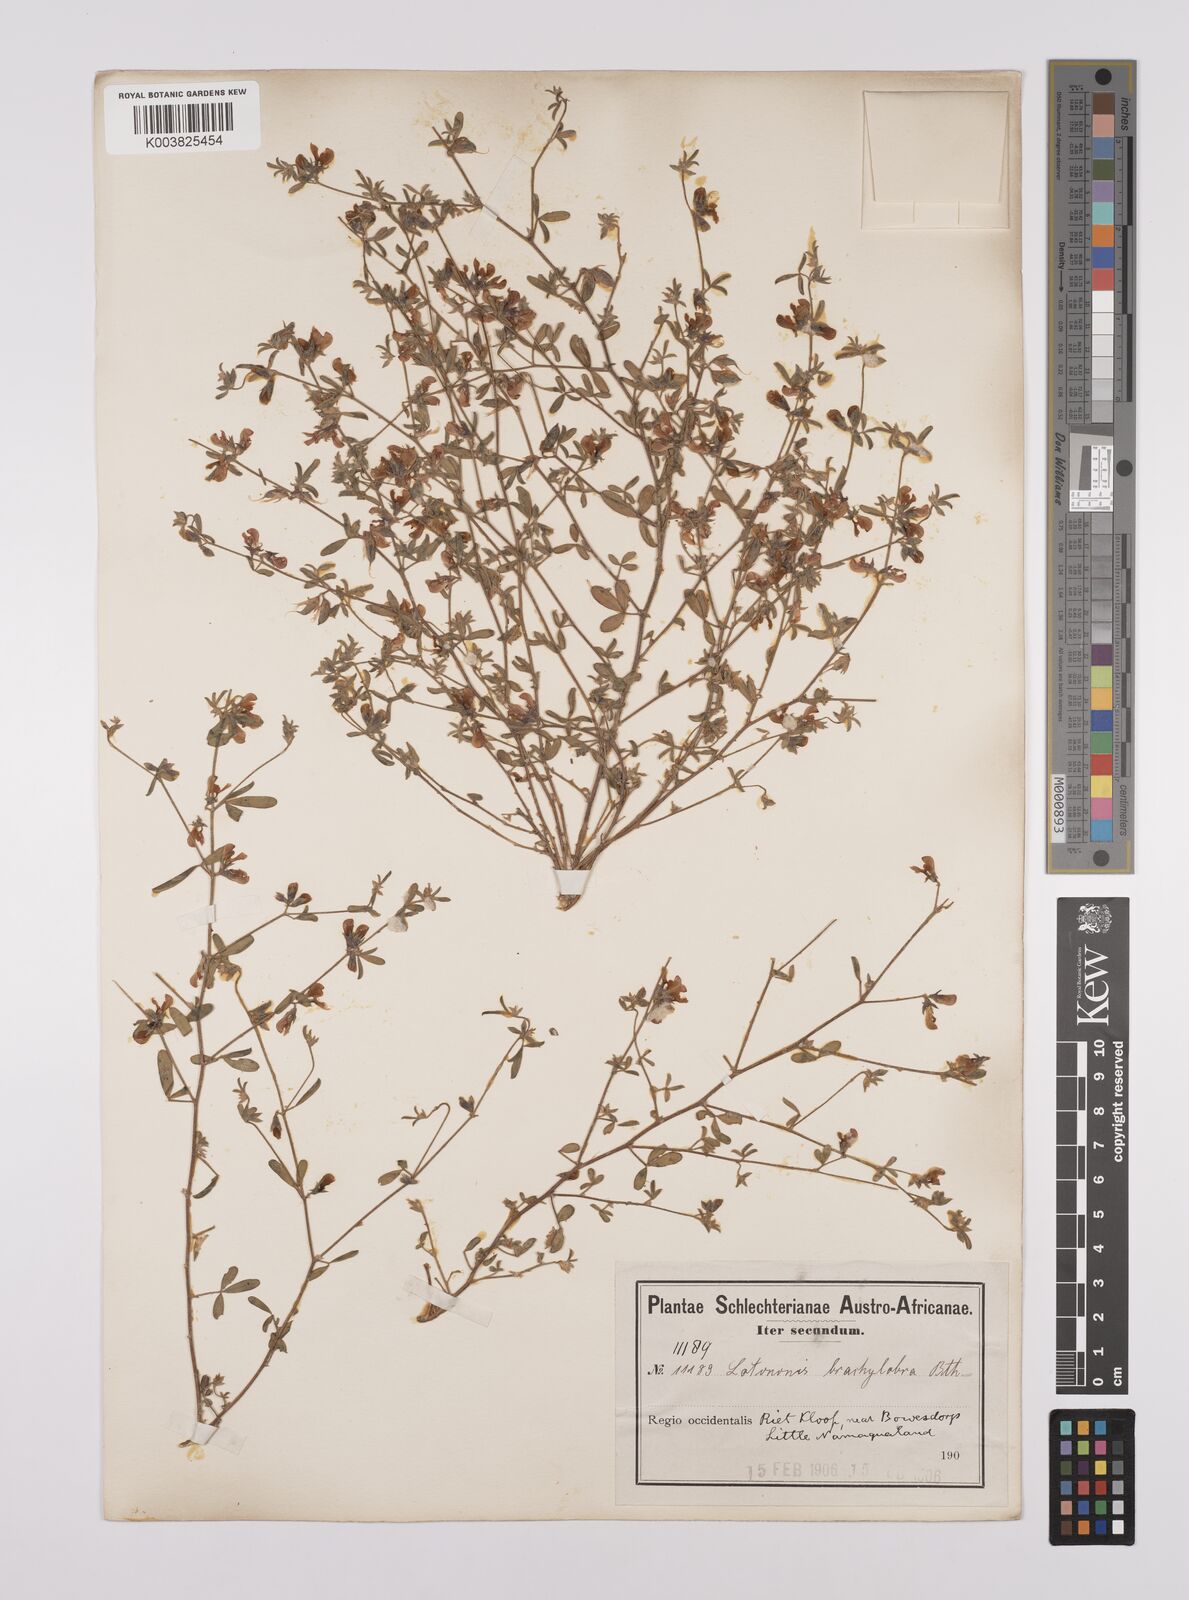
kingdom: Plantae
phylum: Tracheophyta
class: Magnoliopsida
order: Fabales
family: Fabaceae
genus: Lotononis
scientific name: Lotononis parviflora
